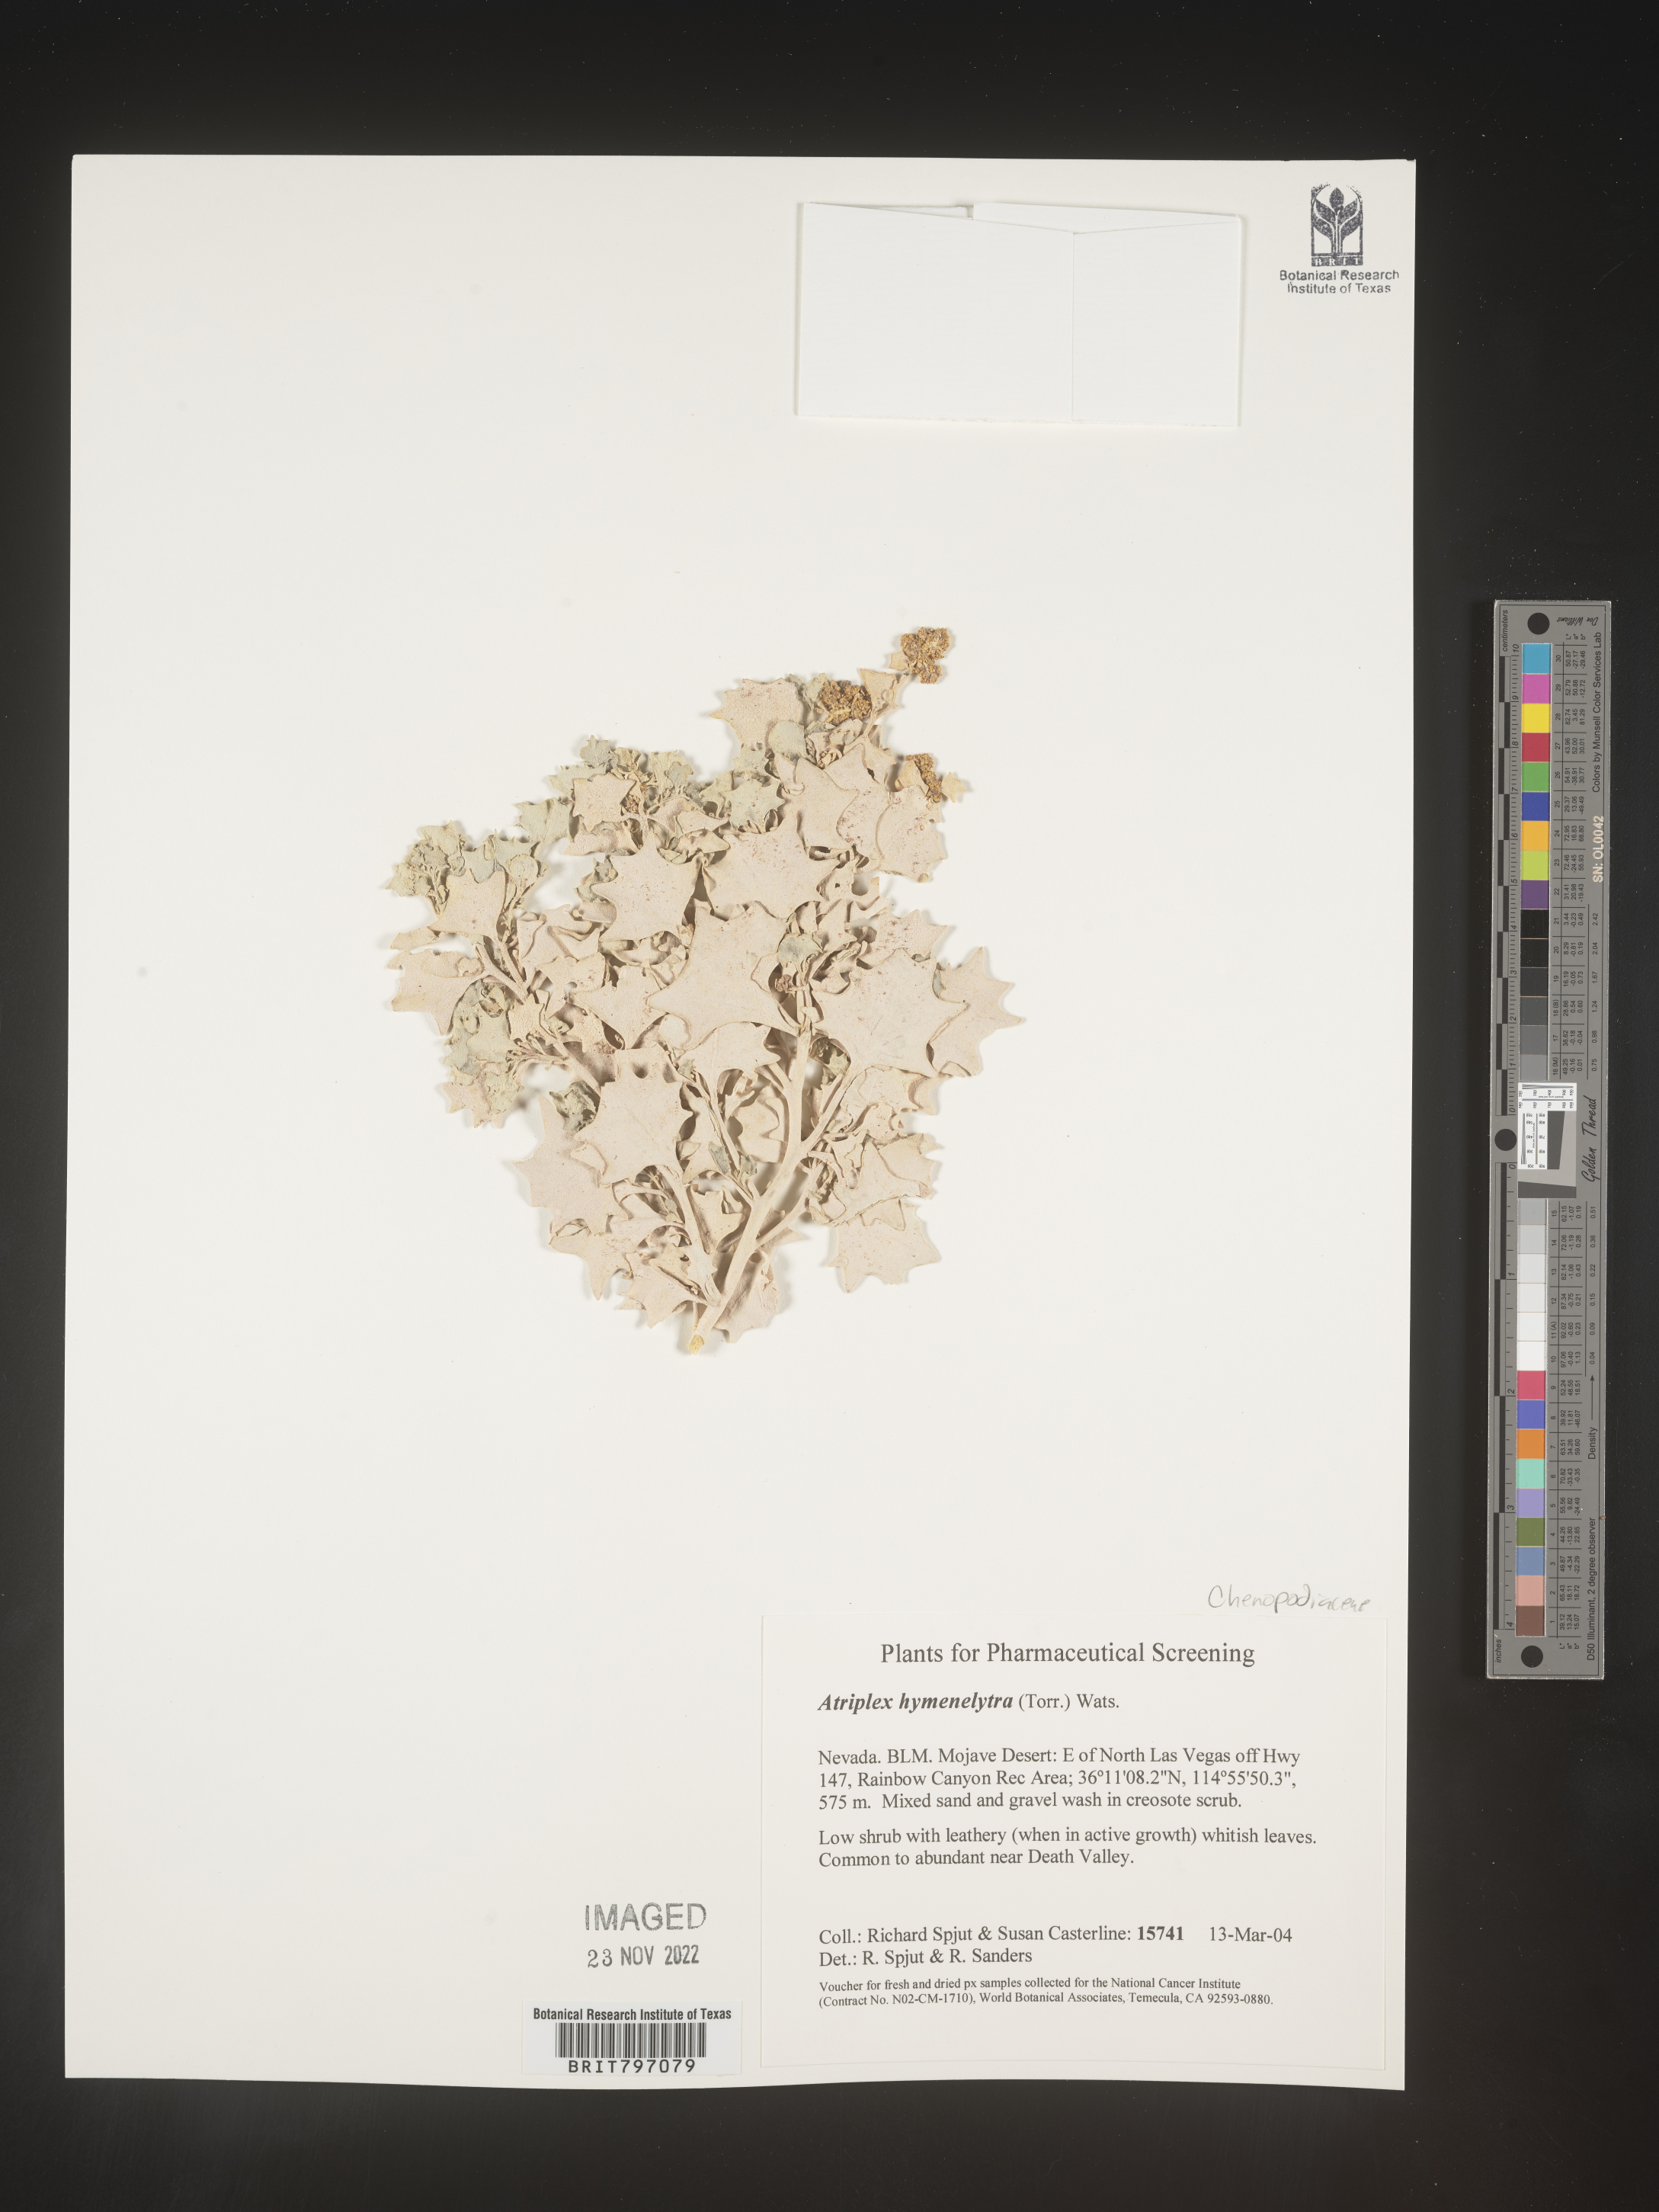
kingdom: Plantae
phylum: Tracheophyta
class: Magnoliopsida
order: Caryophyllales
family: Amaranthaceae
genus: Atriplex
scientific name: Atriplex
